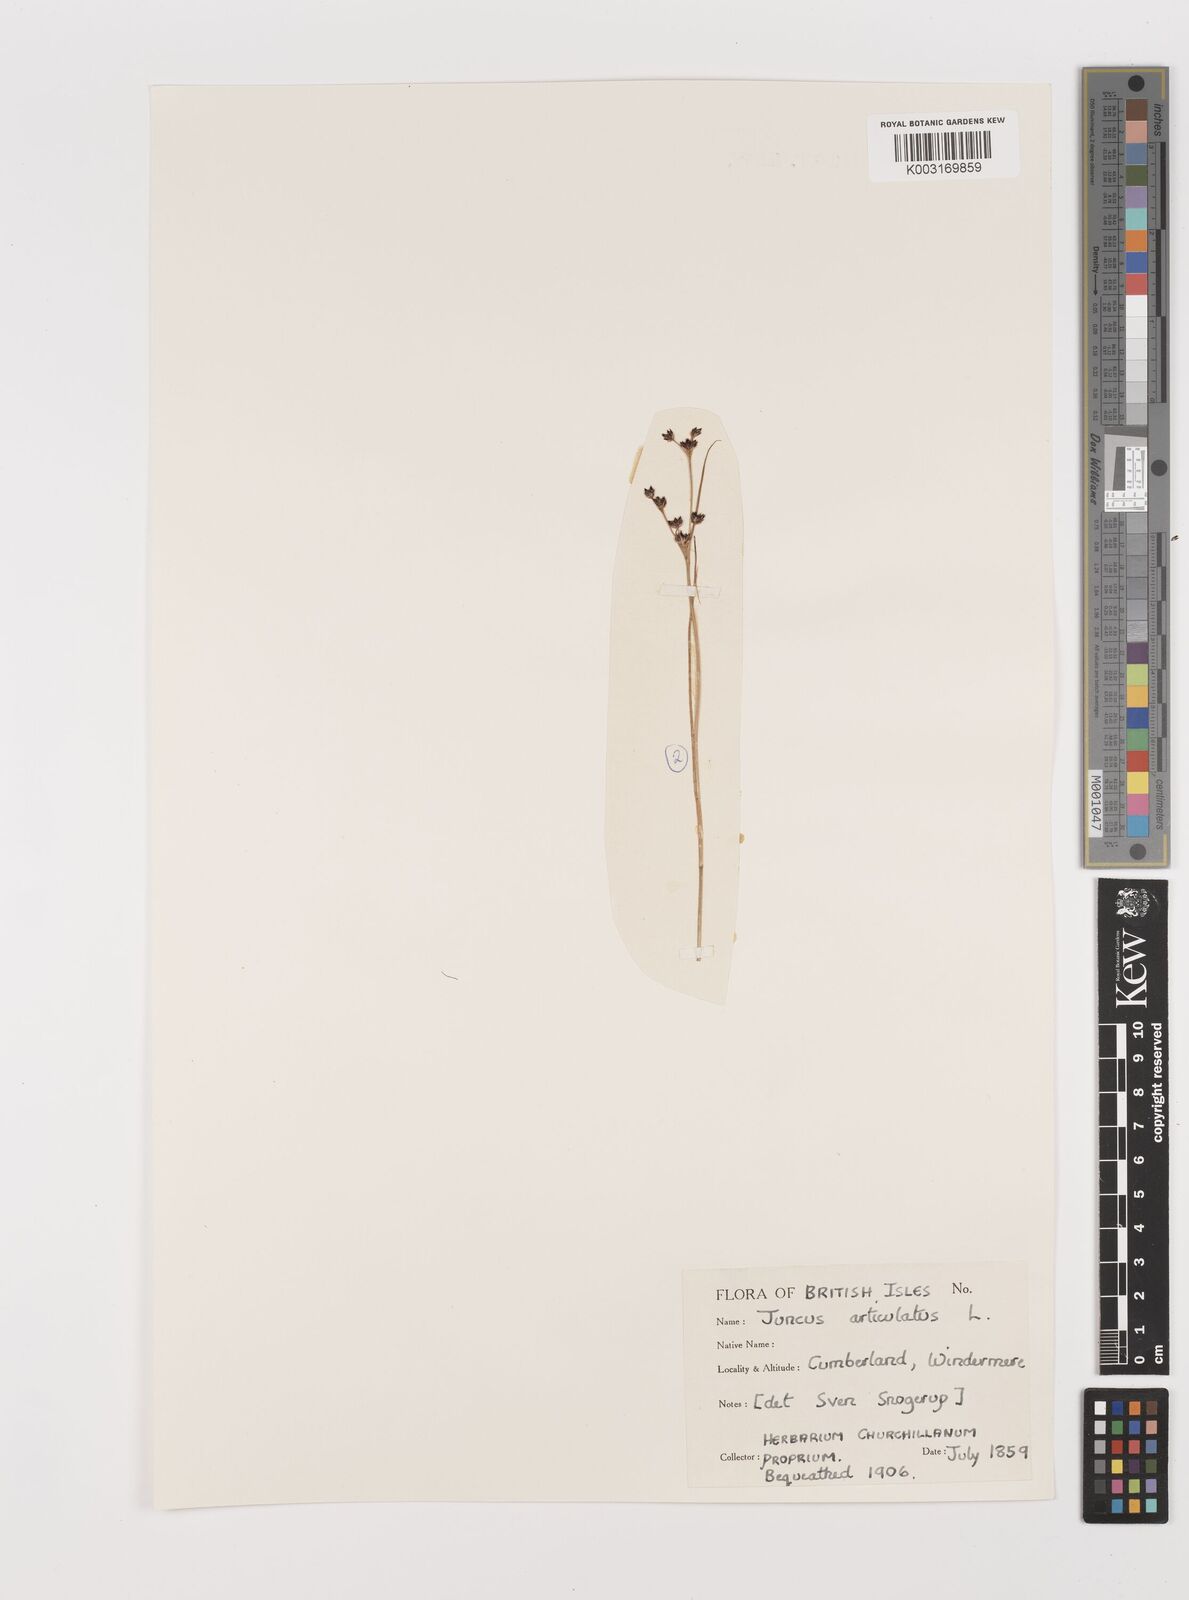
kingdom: Plantae
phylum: Tracheophyta
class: Liliopsida
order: Poales
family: Juncaceae
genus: Juncus
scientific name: Juncus articulatus
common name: Jointed rush
